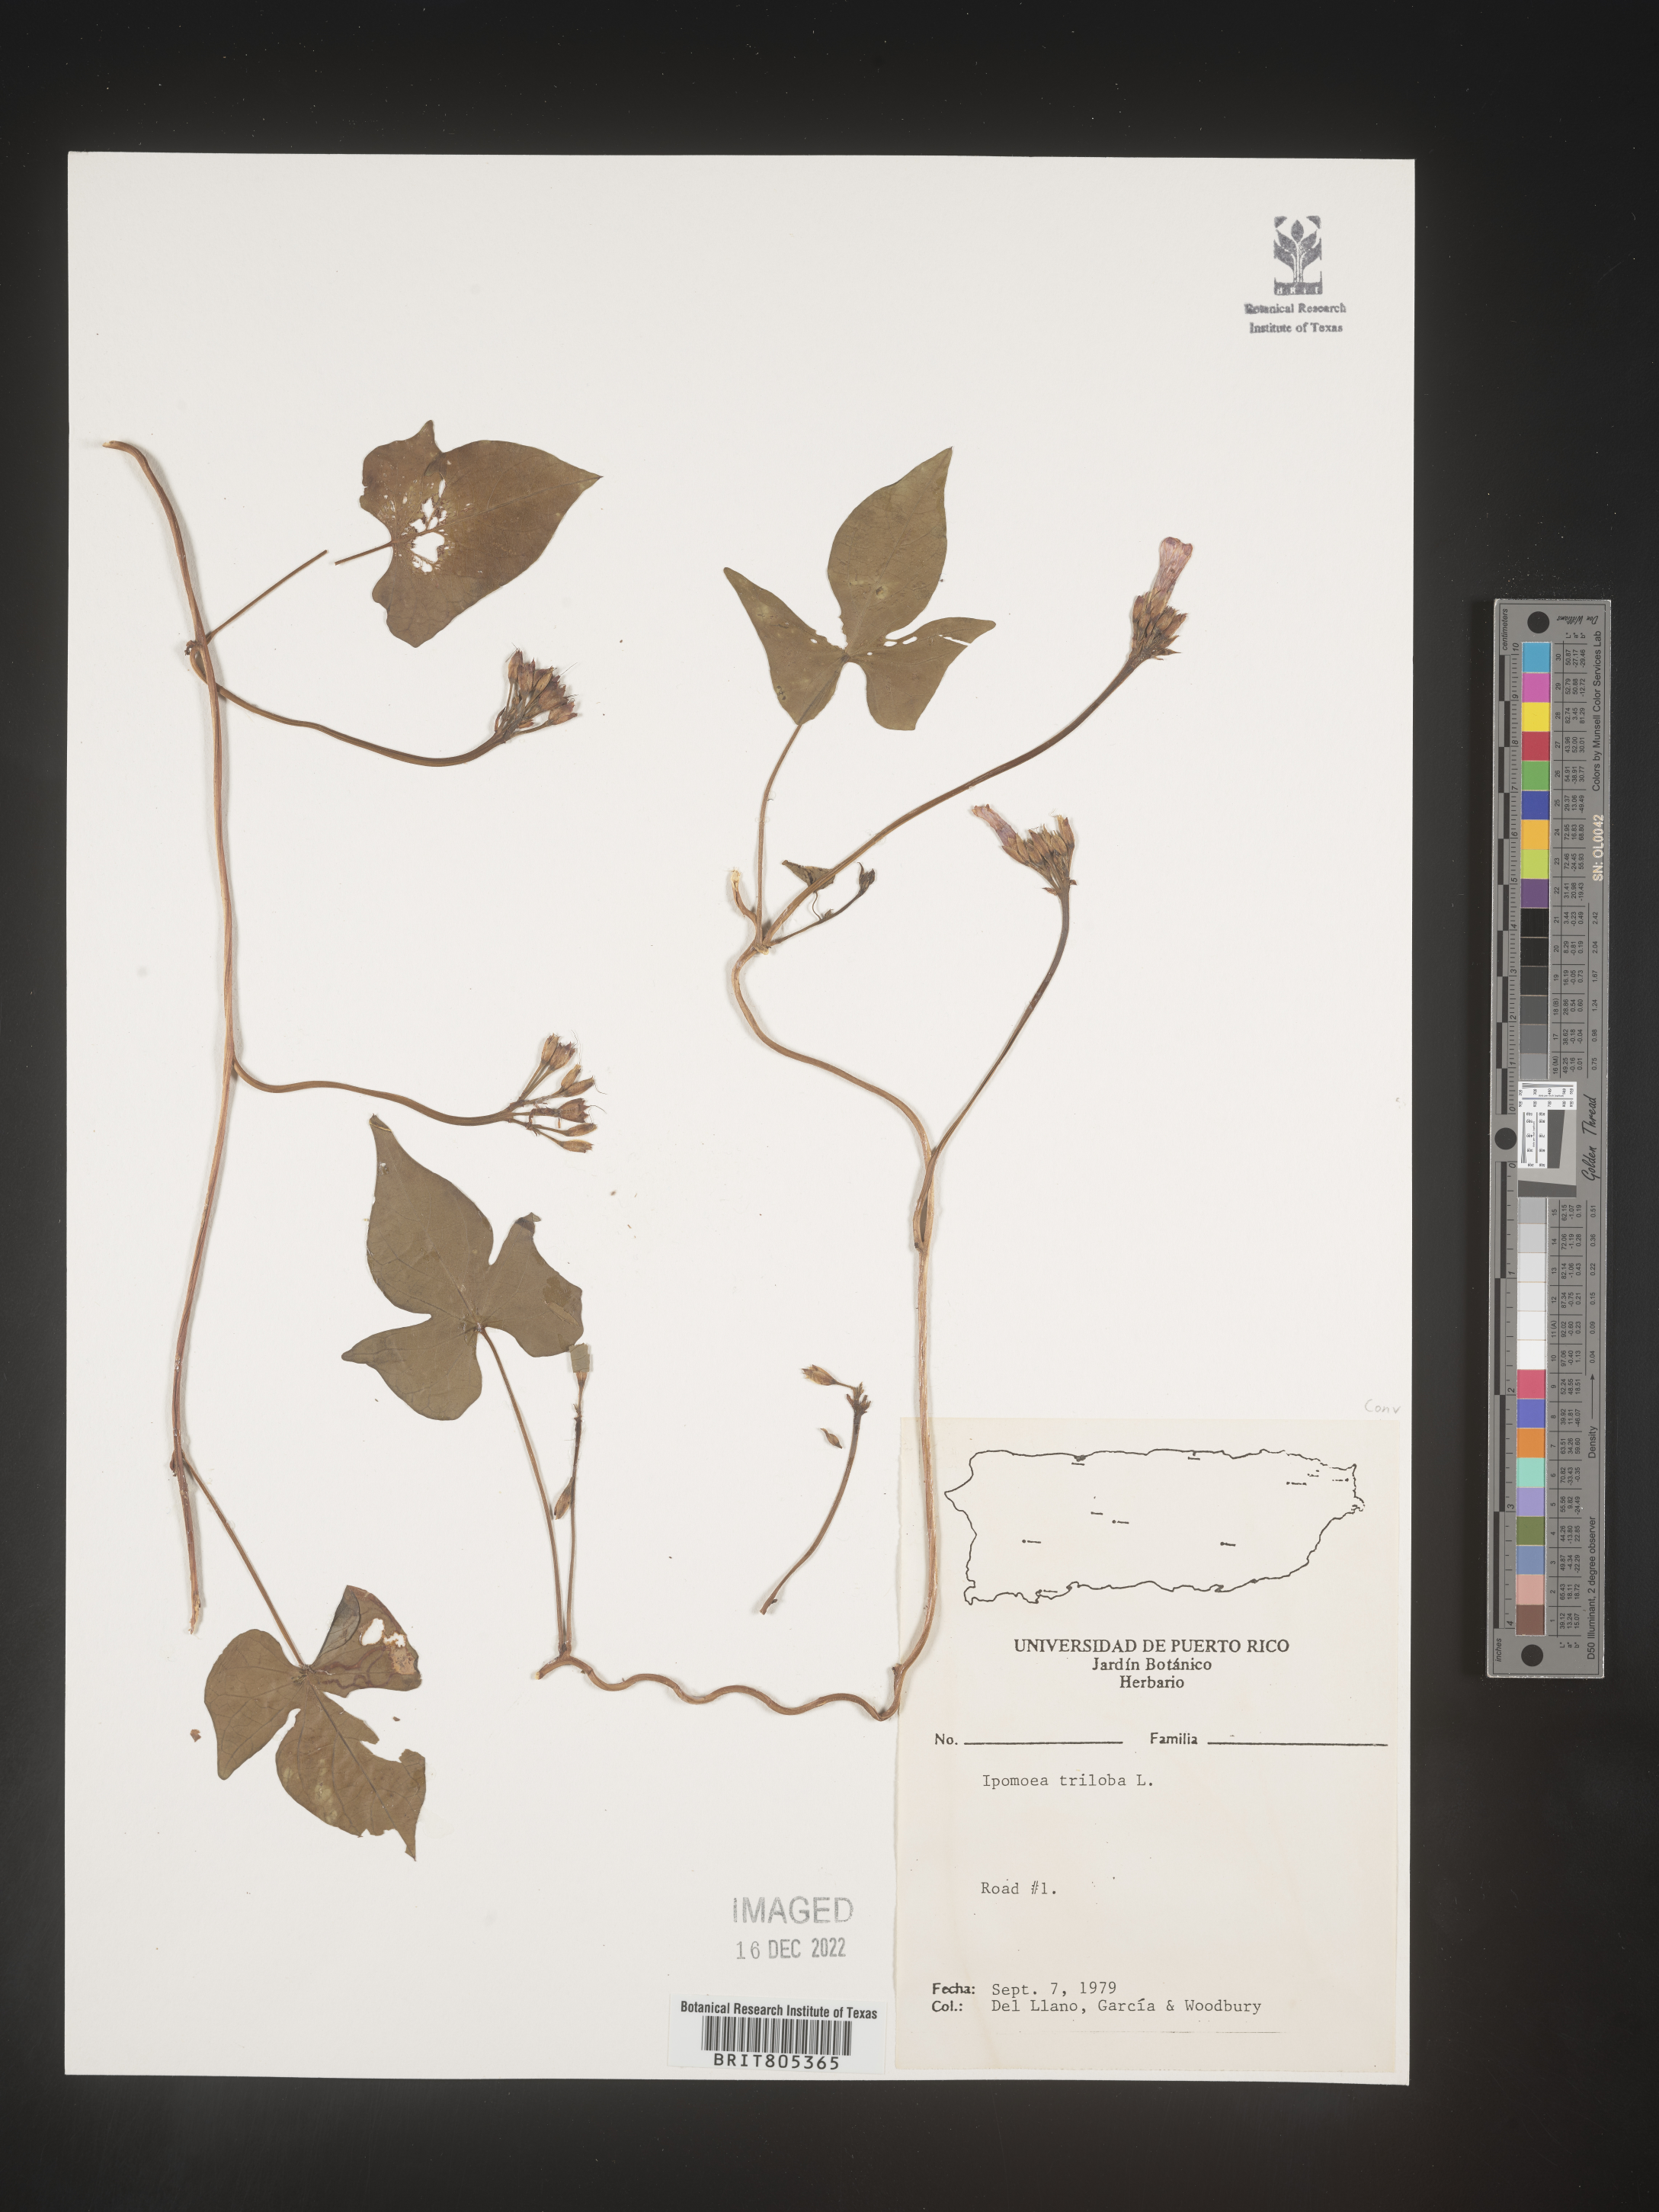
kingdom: Plantae
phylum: Tracheophyta
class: Magnoliopsida
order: Solanales
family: Convolvulaceae
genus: Ipomoea
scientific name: Ipomoea
